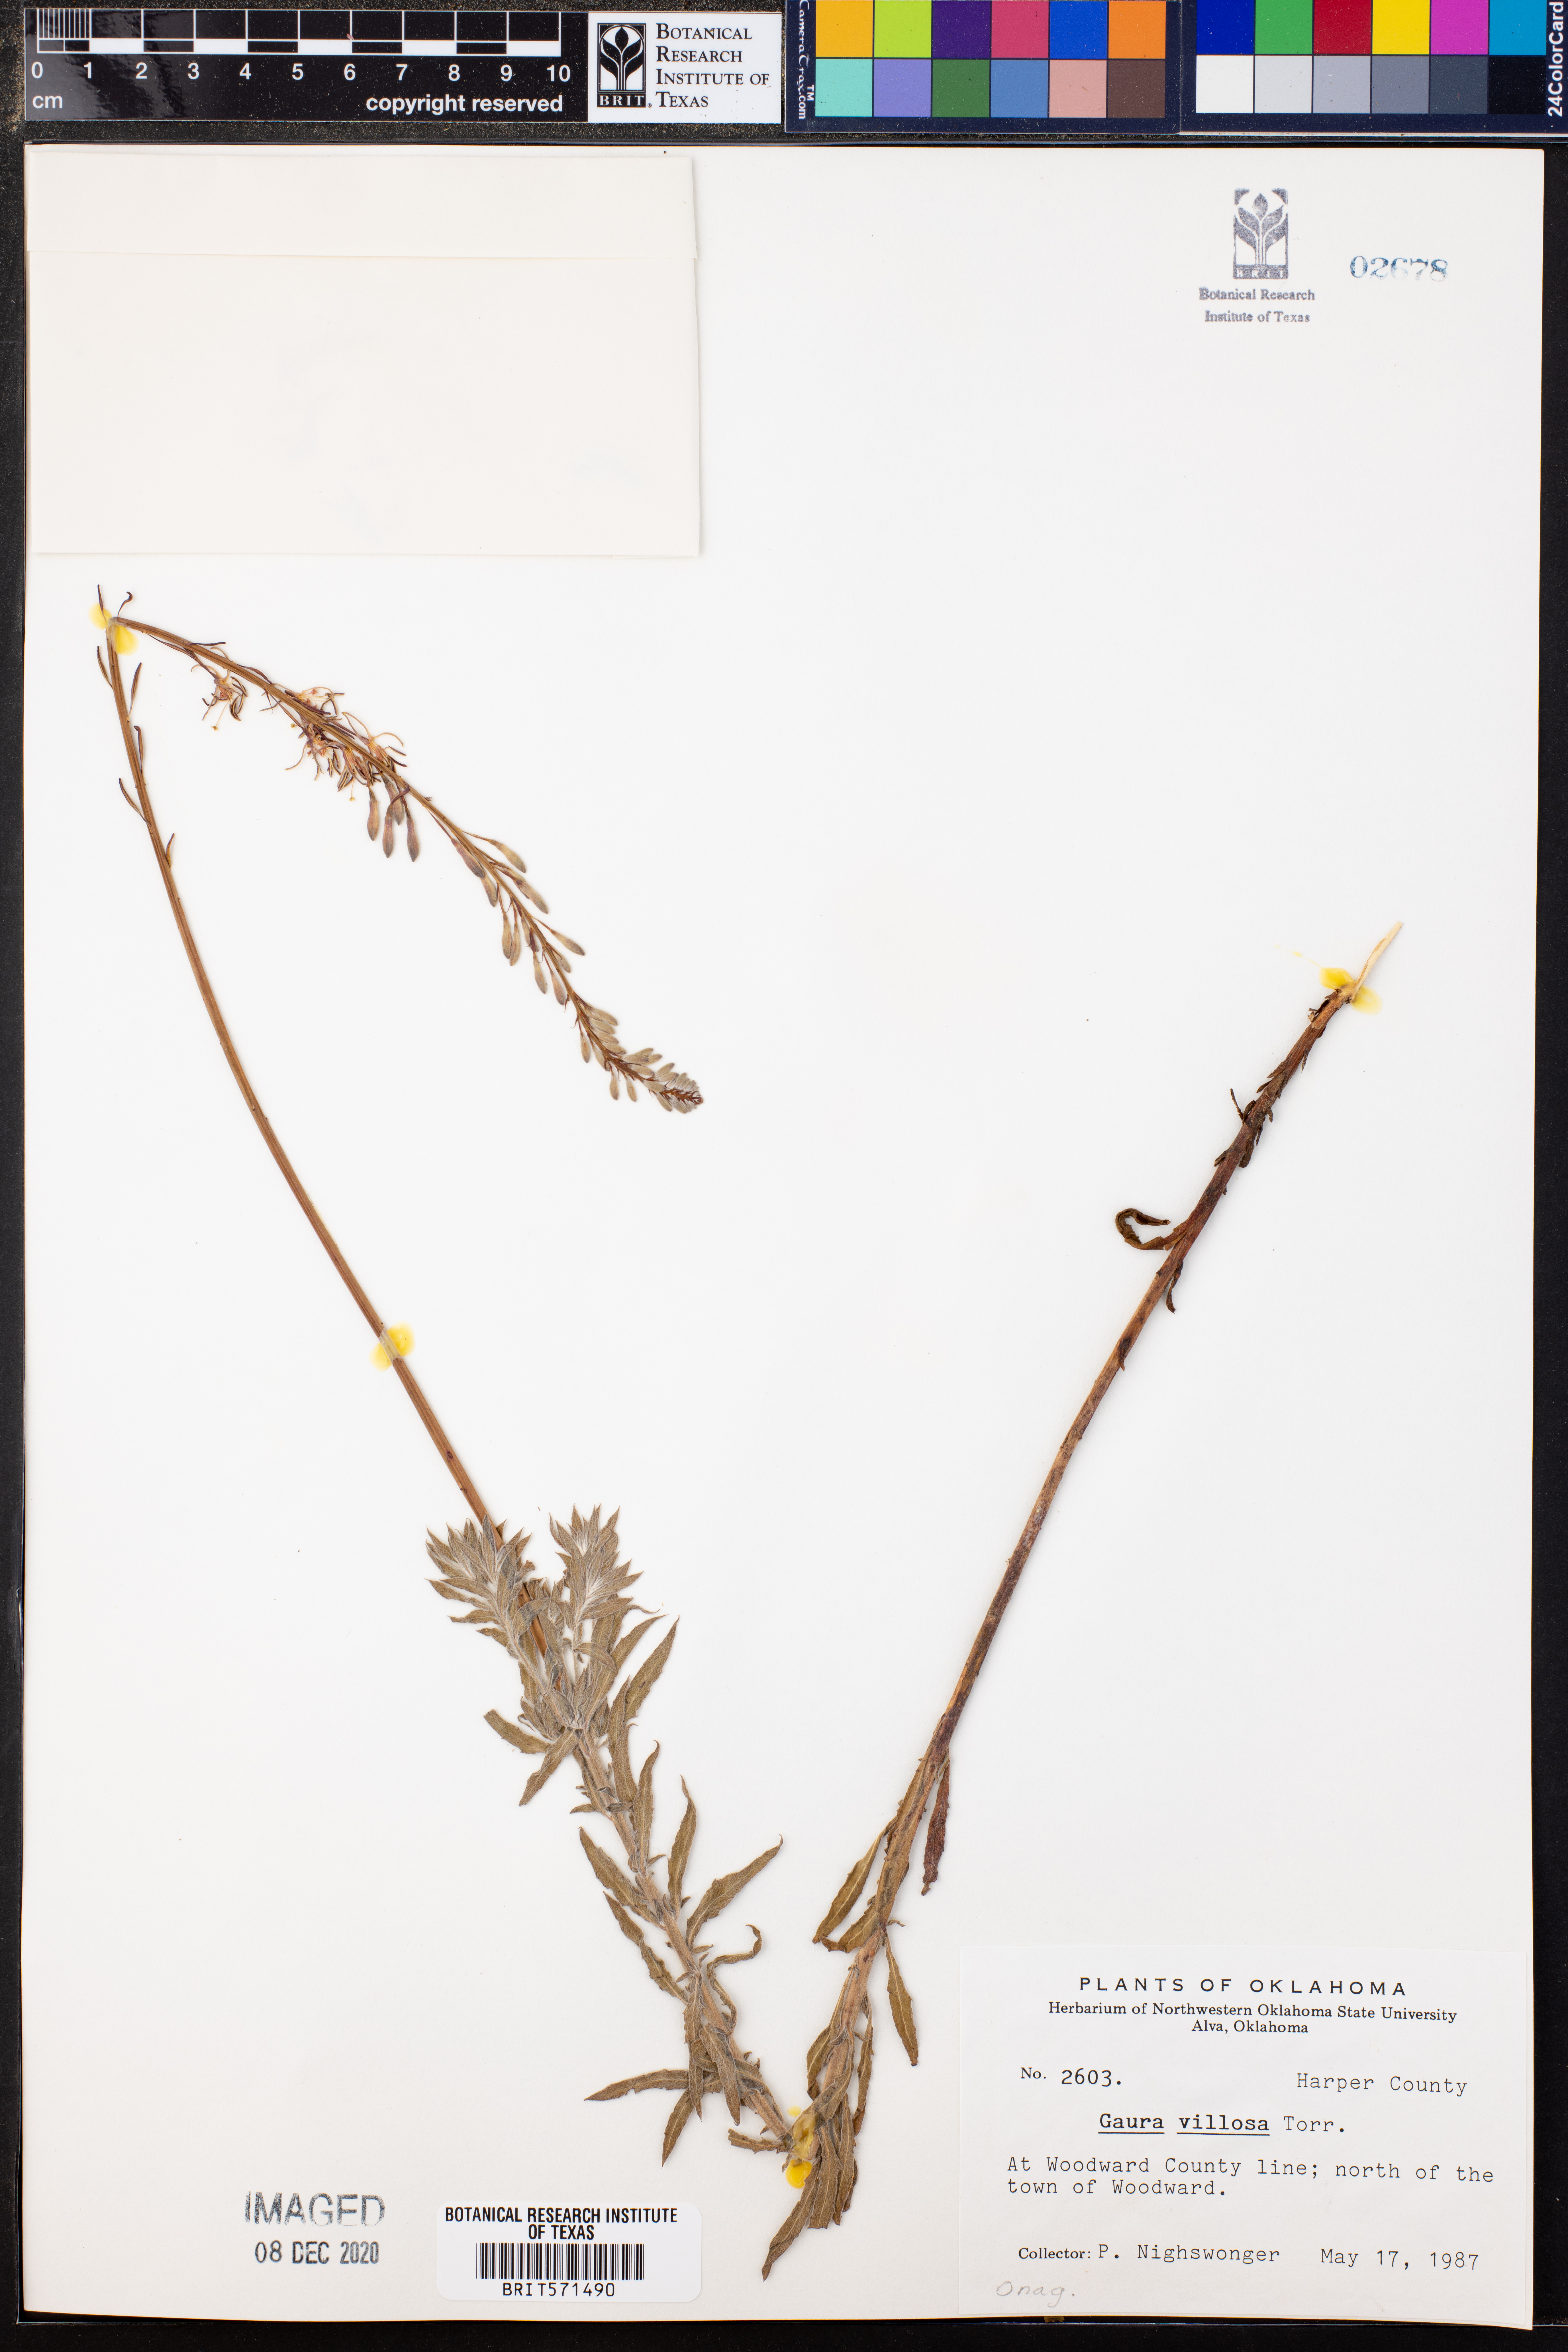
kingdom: Plantae
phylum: Tracheophyta
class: Magnoliopsida
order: Myrtales
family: Onagraceae
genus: Oenothera
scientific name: Oenothera cinerea
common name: Woolly beeblossom
